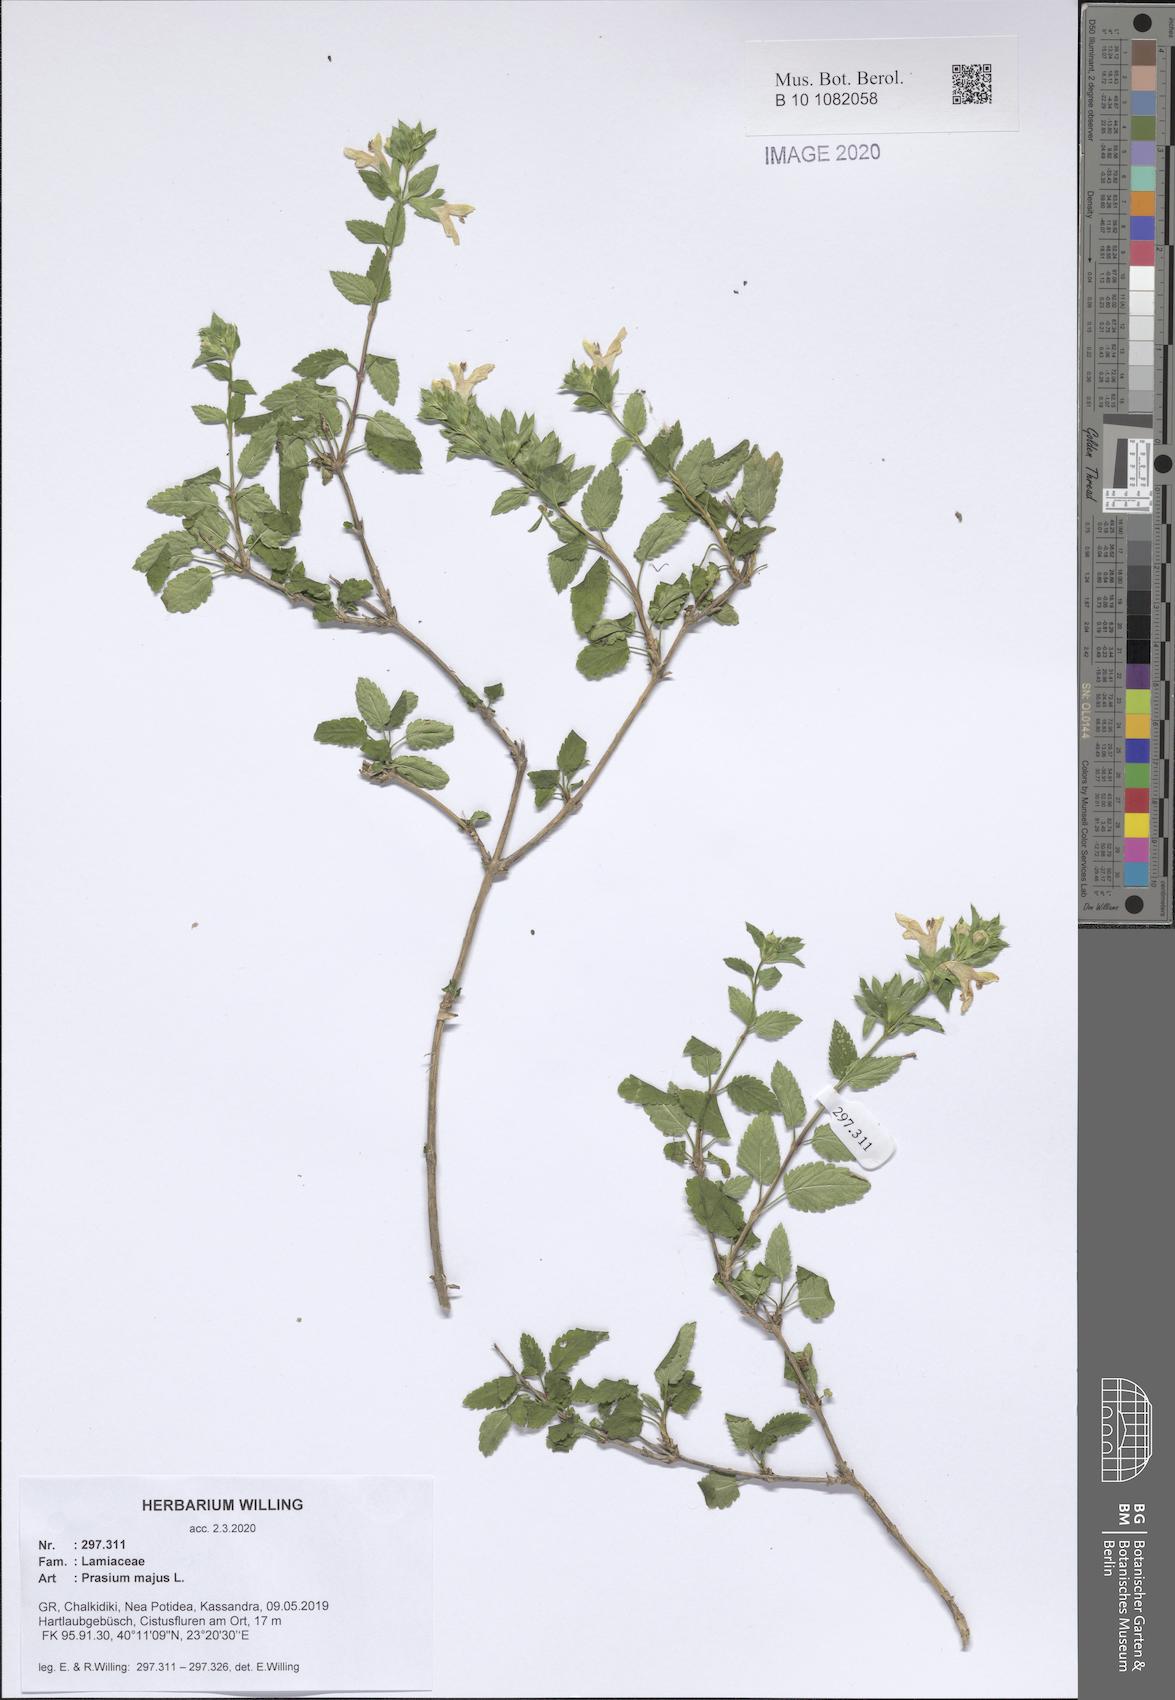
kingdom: Plantae
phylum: Tracheophyta
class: Magnoliopsida
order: Lamiales
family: Lamiaceae
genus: Prasium
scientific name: Prasium majus
